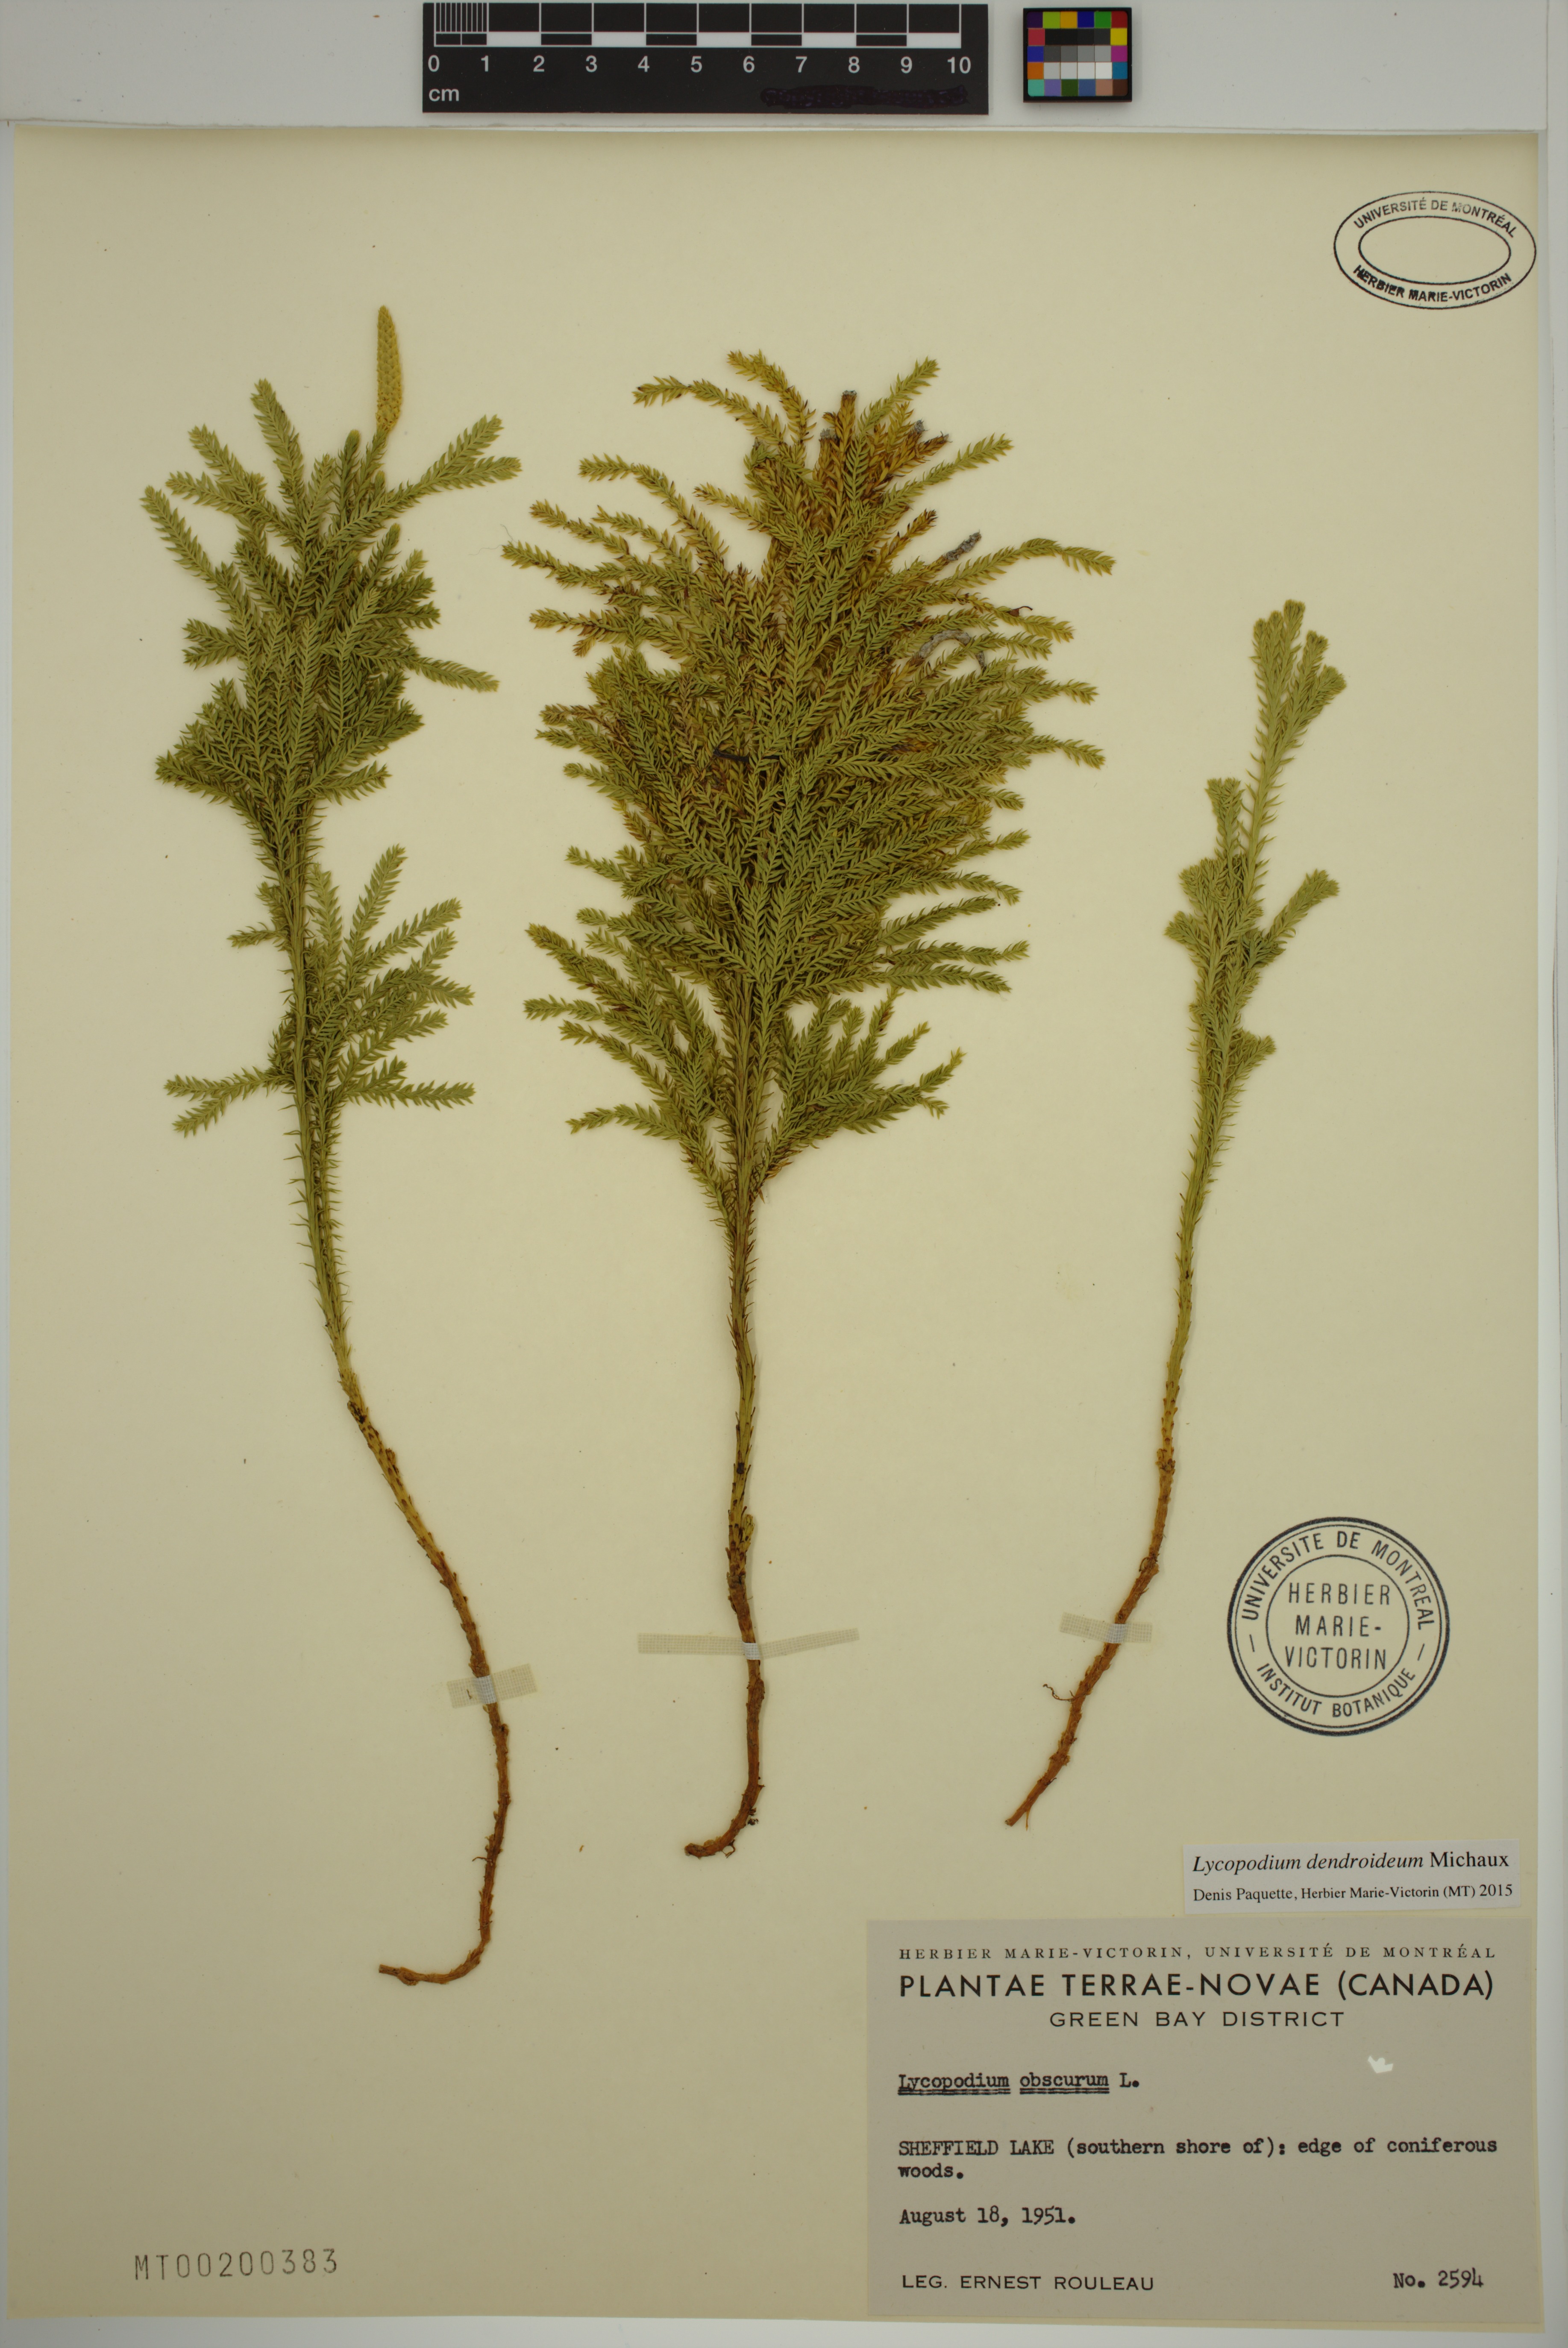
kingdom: Plantae
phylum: Tracheophyta
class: Lycopodiopsida
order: Lycopodiales
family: Lycopodiaceae
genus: Dendrolycopodium
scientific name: Dendrolycopodium dendroideum
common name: Northern tree-clubmoss
